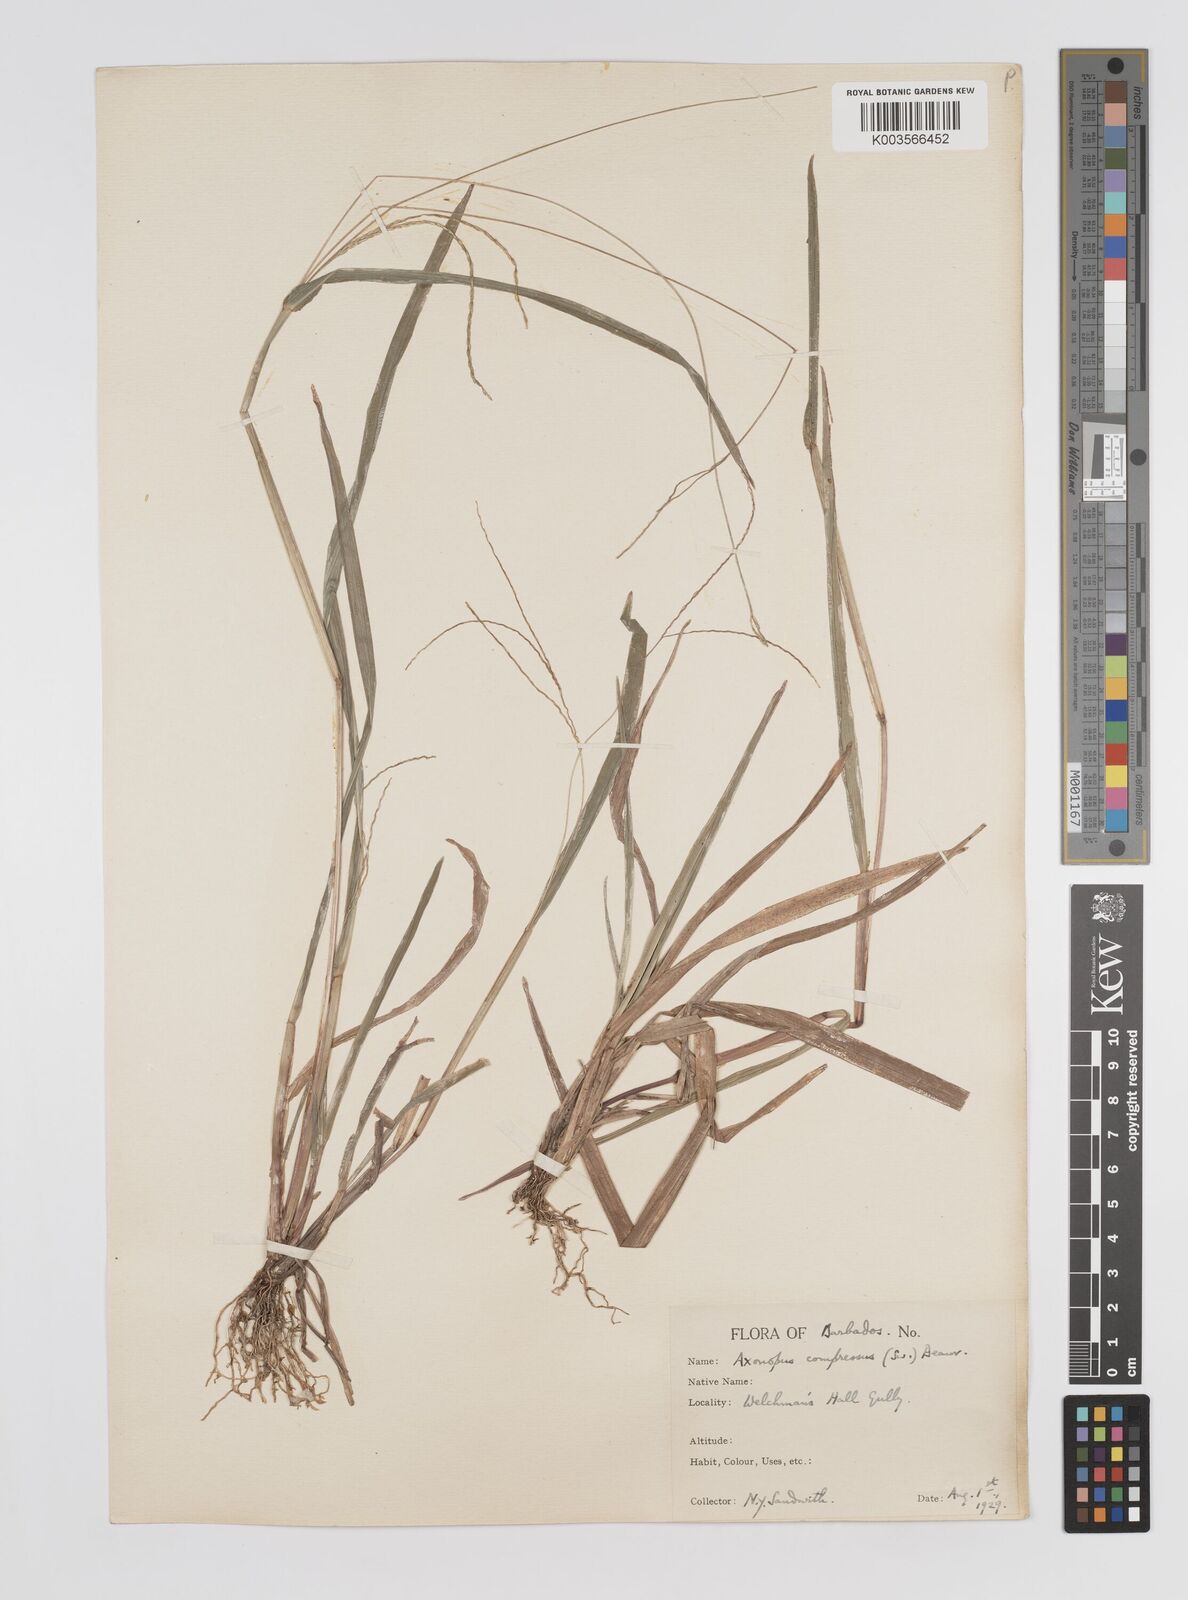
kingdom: Plantae
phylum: Tracheophyta
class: Liliopsida
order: Poales
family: Poaceae
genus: Axonopus
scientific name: Axonopus compressus
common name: American carpet grass
